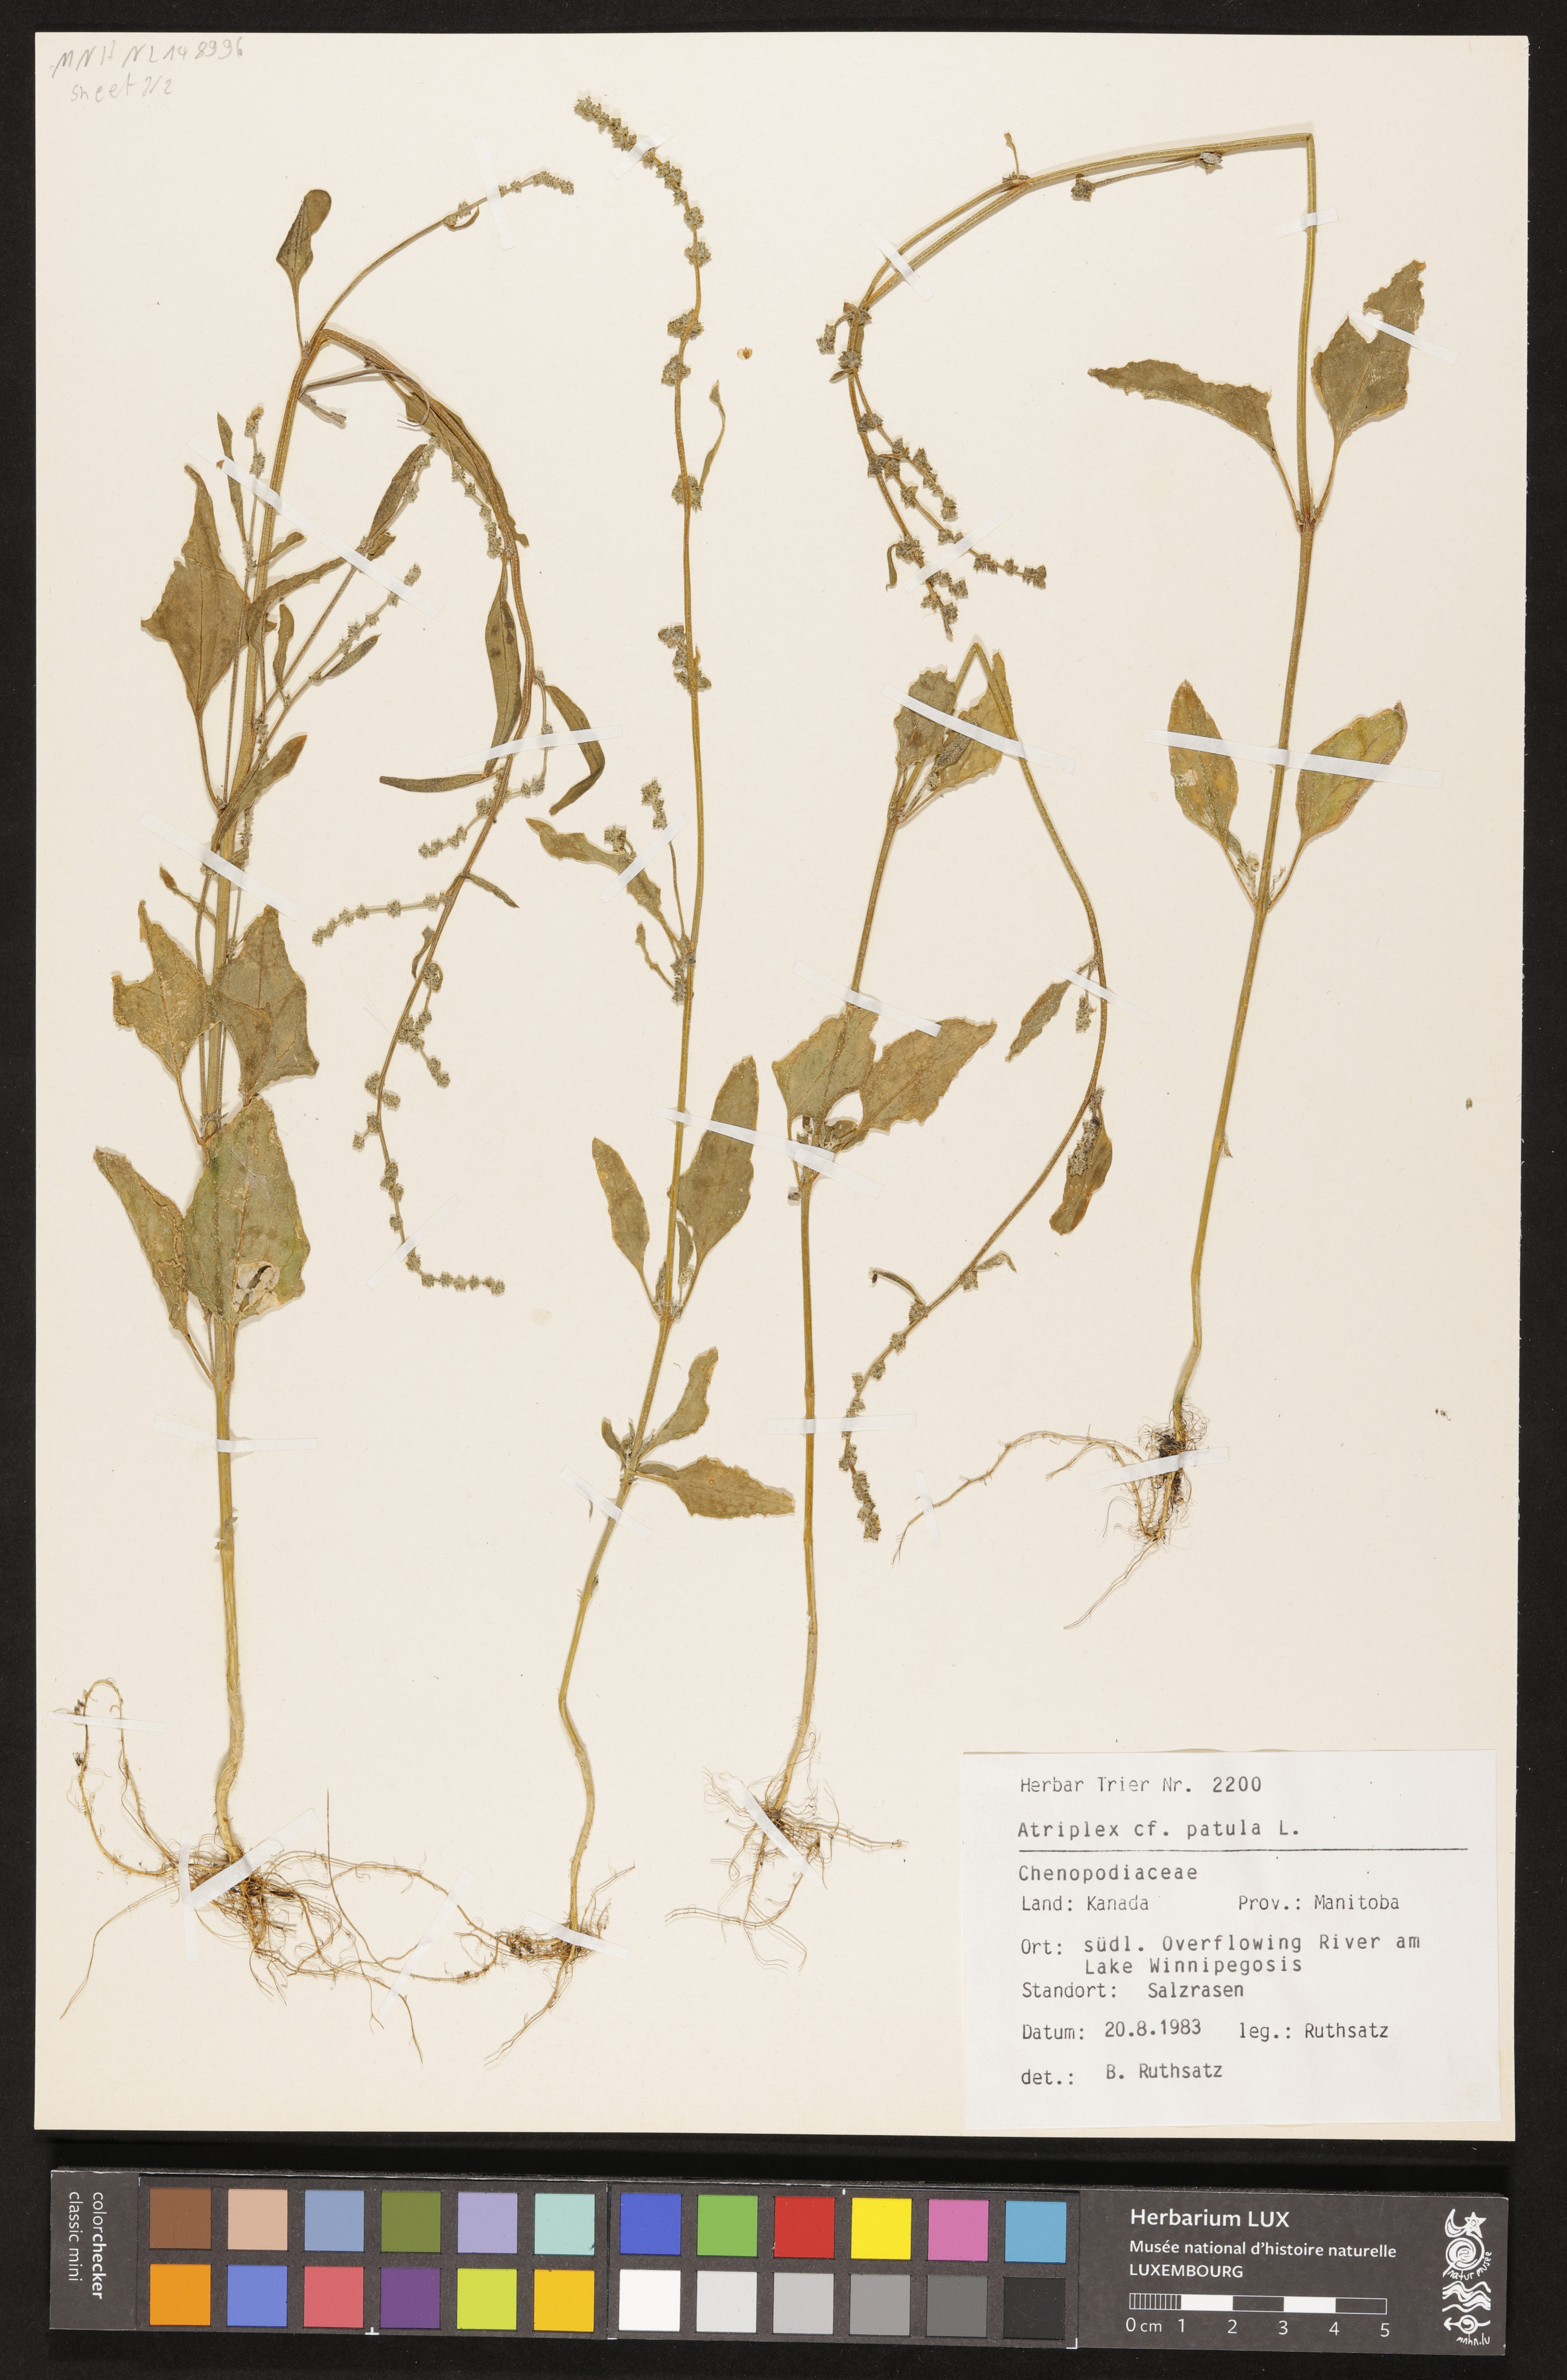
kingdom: Plantae
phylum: Tracheophyta
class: Magnoliopsida
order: Caryophyllales
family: Amaranthaceae
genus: Atriplex
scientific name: Atriplex patula
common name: Common orache
